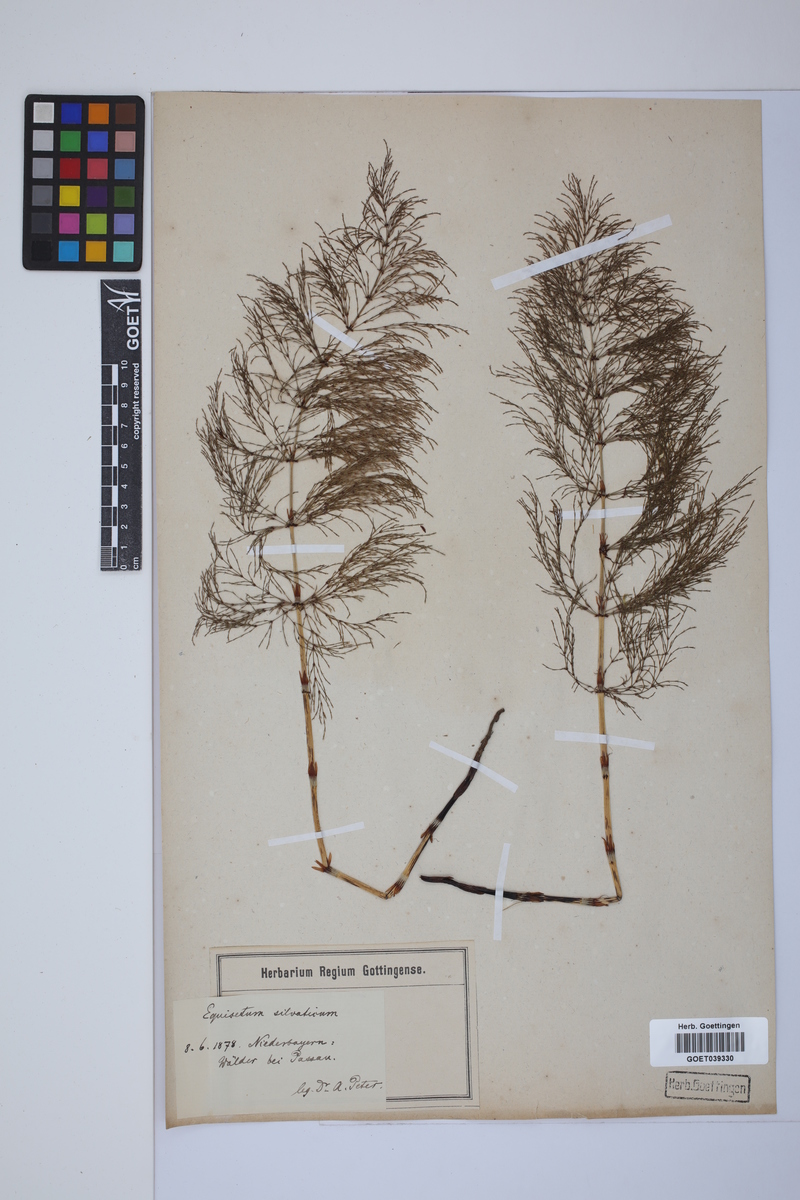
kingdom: Plantae
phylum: Tracheophyta
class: Polypodiopsida
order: Equisetales
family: Equisetaceae
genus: Equisetum
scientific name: Equisetum sylvaticum
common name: Wood horsetail
